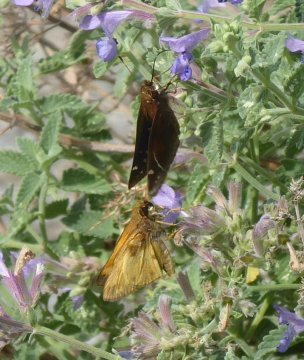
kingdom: Animalia
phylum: Arthropoda
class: Insecta
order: Lepidoptera
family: Hesperiidae
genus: Lon
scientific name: Lon zabulon
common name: Zabulon Skipper
